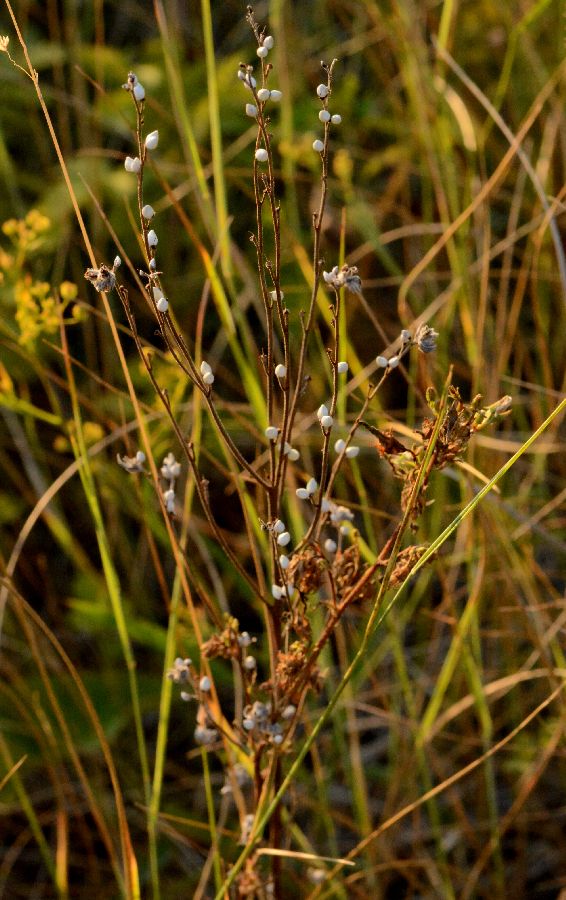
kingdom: Plantae
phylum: Tracheophyta
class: Magnoliopsida
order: Boraginales
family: Boraginaceae
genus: Lithospermum
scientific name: Lithospermum officinale
